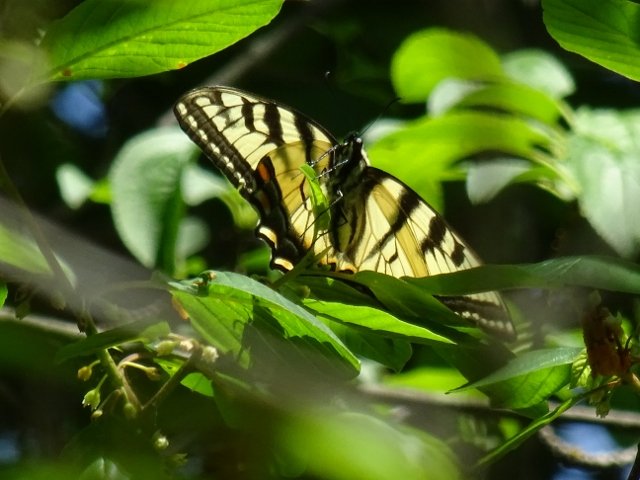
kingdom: Animalia
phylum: Arthropoda
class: Insecta
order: Lepidoptera
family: Papilionidae
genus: Pterourus
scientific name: Pterourus glaucus
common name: Eastern Tiger Swallowtail
